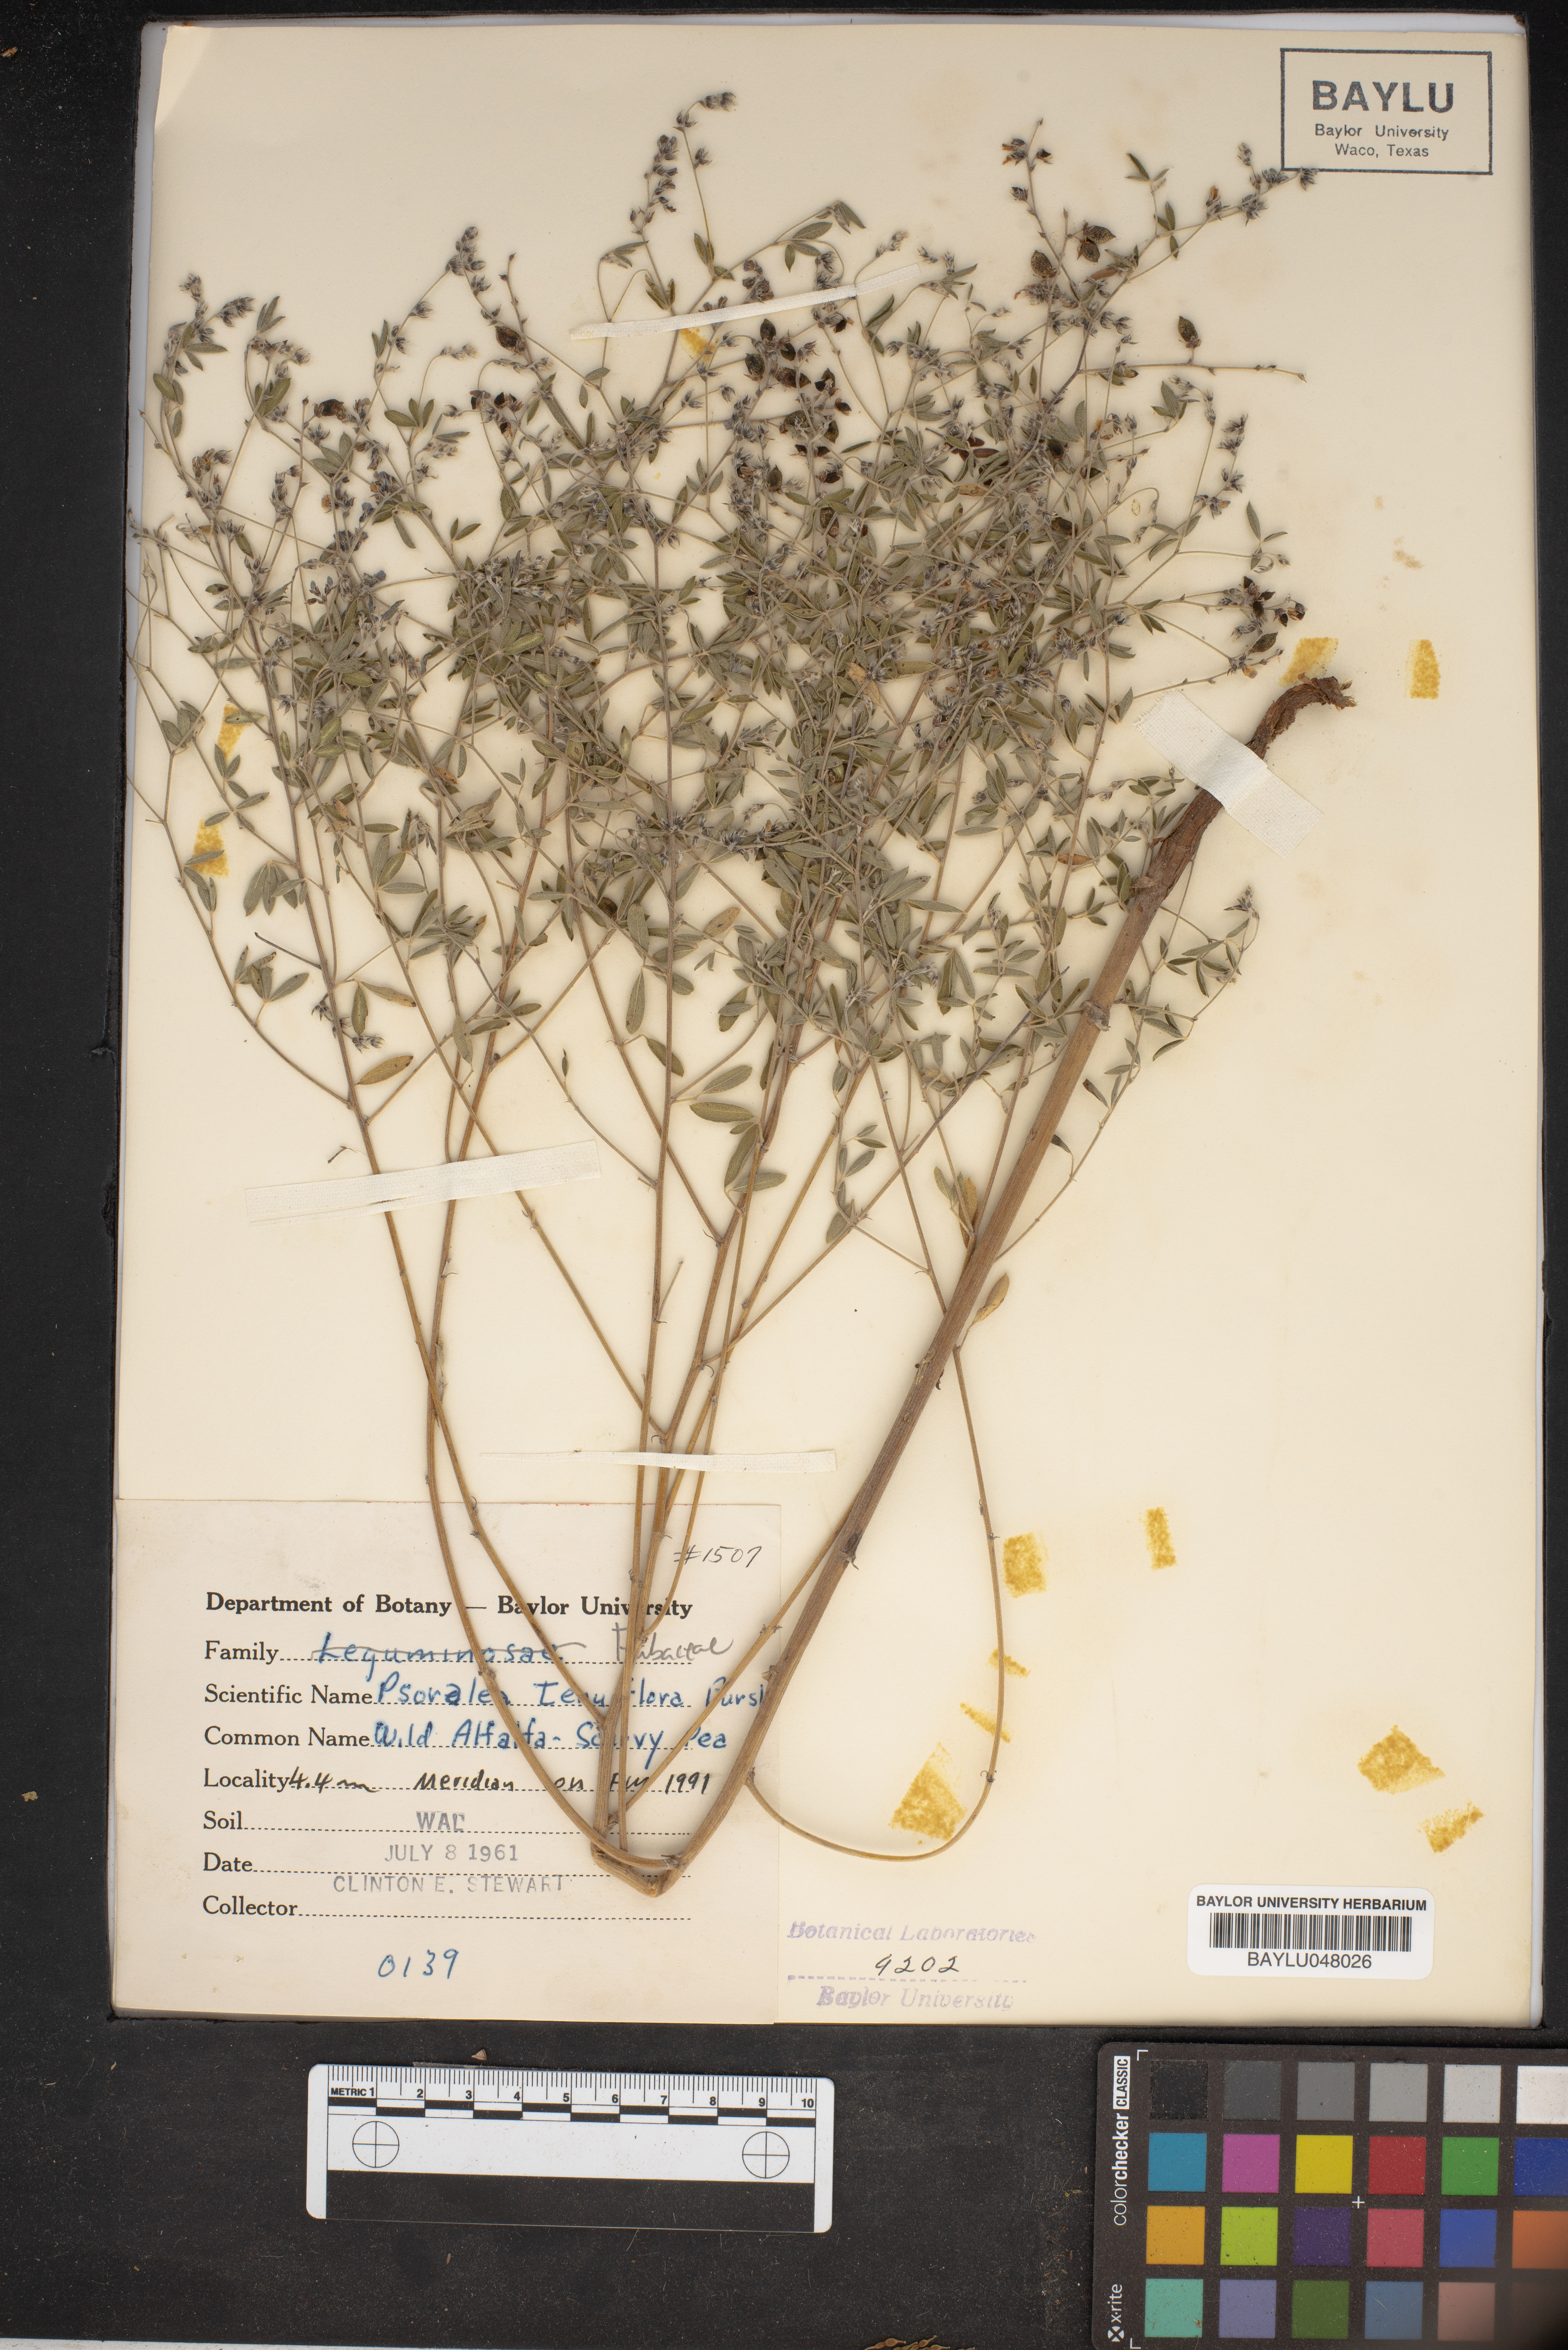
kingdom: Plantae
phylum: Tracheophyta
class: Magnoliopsida
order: Fabales
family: Fabaceae
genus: Pediomelum
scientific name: Pediomelum tenuiflorum
